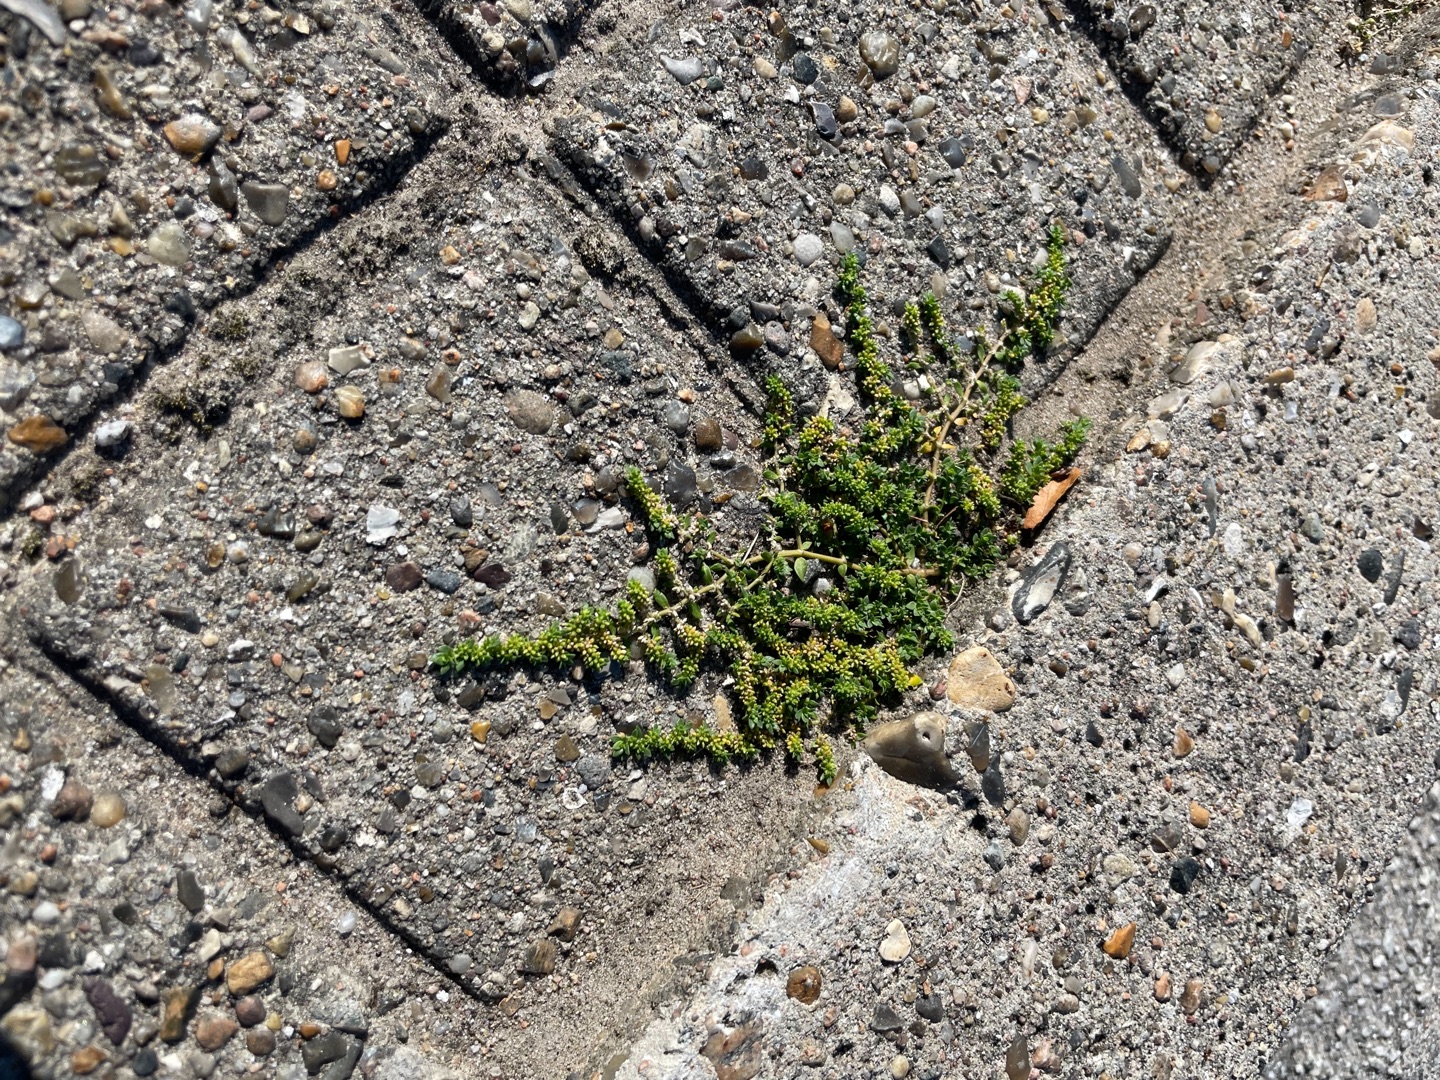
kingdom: Plantae
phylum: Tracheophyta
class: Magnoliopsida
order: Caryophyllales
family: Caryophyllaceae
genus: Herniaria
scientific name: Herniaria glabra
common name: Brudurt
